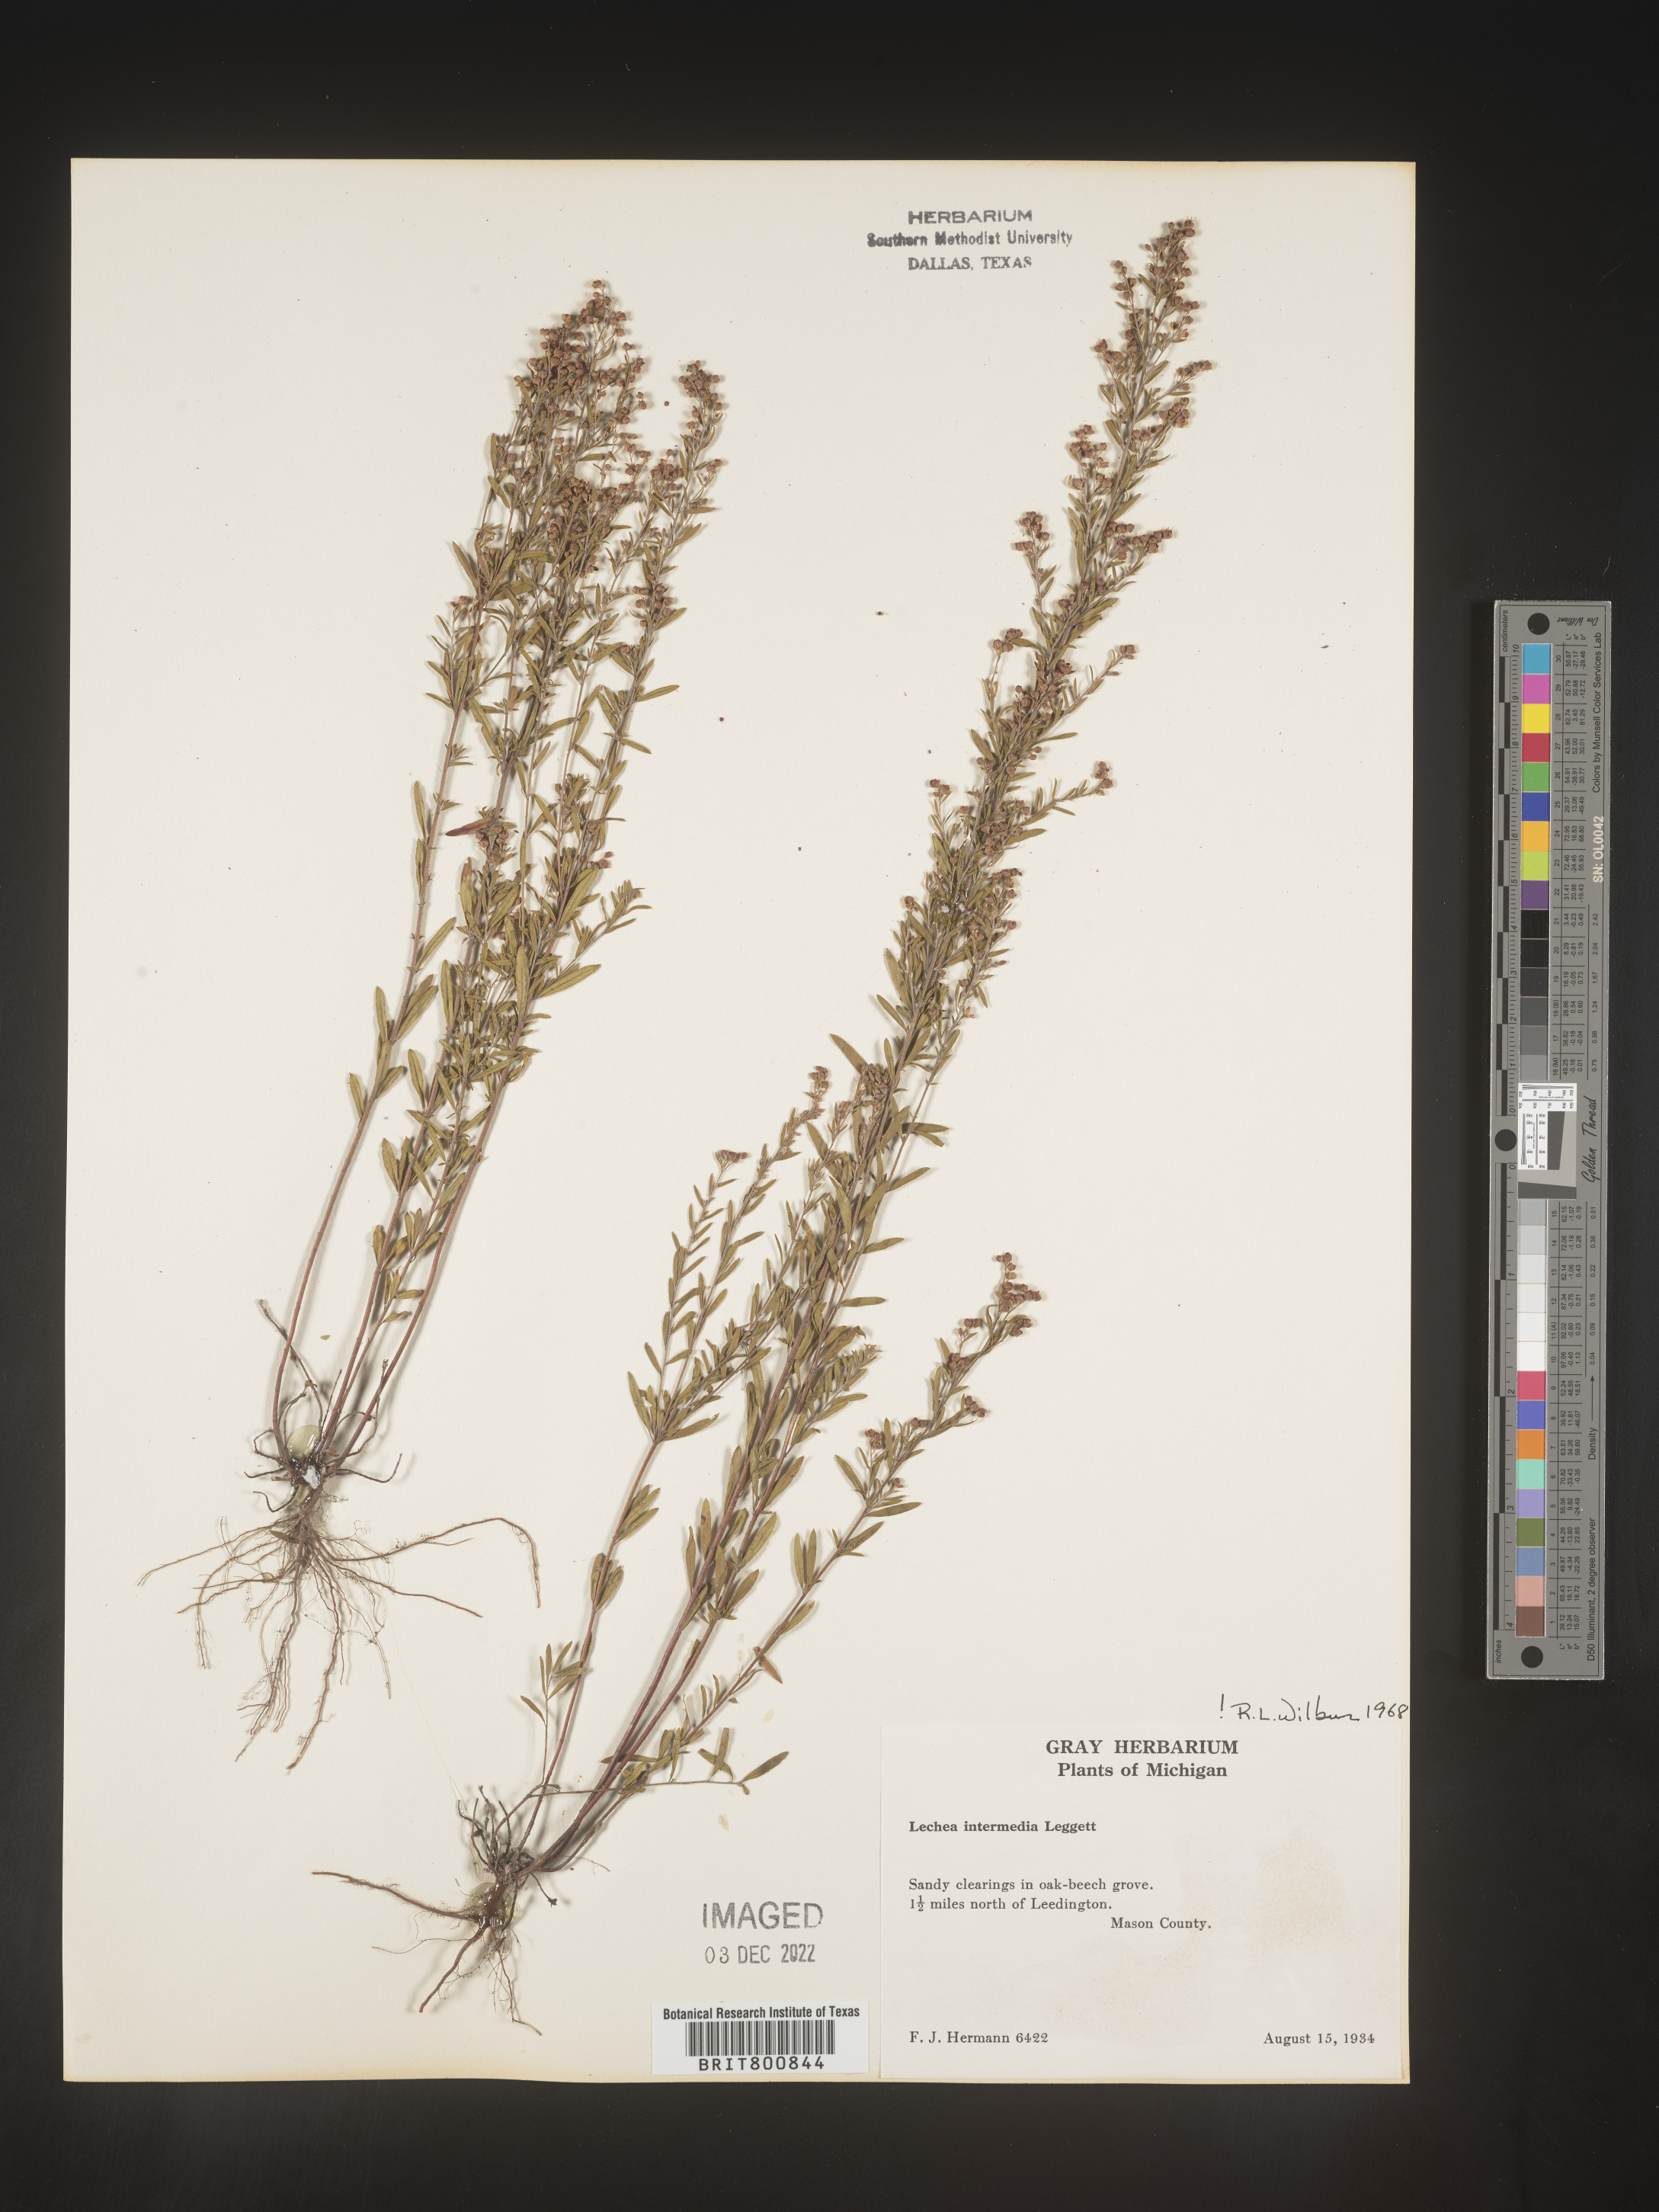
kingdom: Plantae
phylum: Tracheophyta
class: Magnoliopsida
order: Malvales
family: Cistaceae
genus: Lechea
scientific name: Lechea intermedia
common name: Intermediate pinweed
